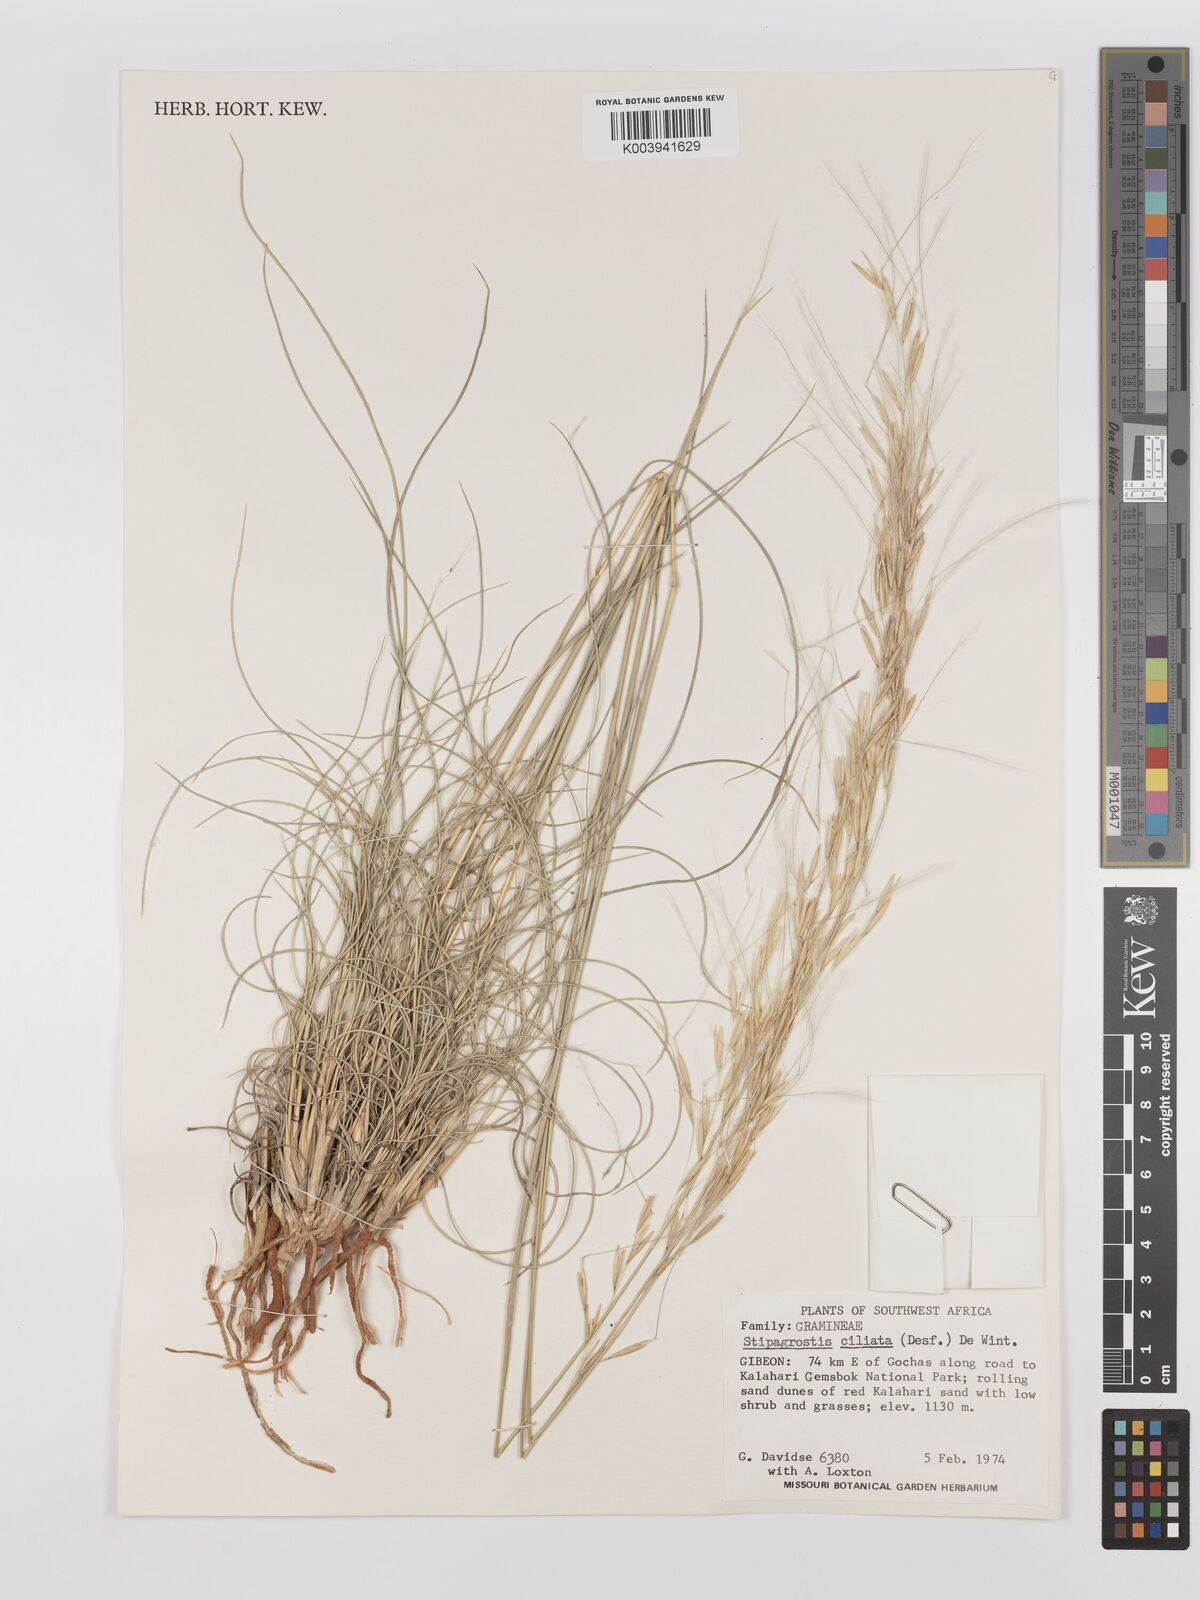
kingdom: Plantae
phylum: Tracheophyta
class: Liliopsida
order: Poales
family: Poaceae
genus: Stipagrostis
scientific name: Stipagrostis ciliata
